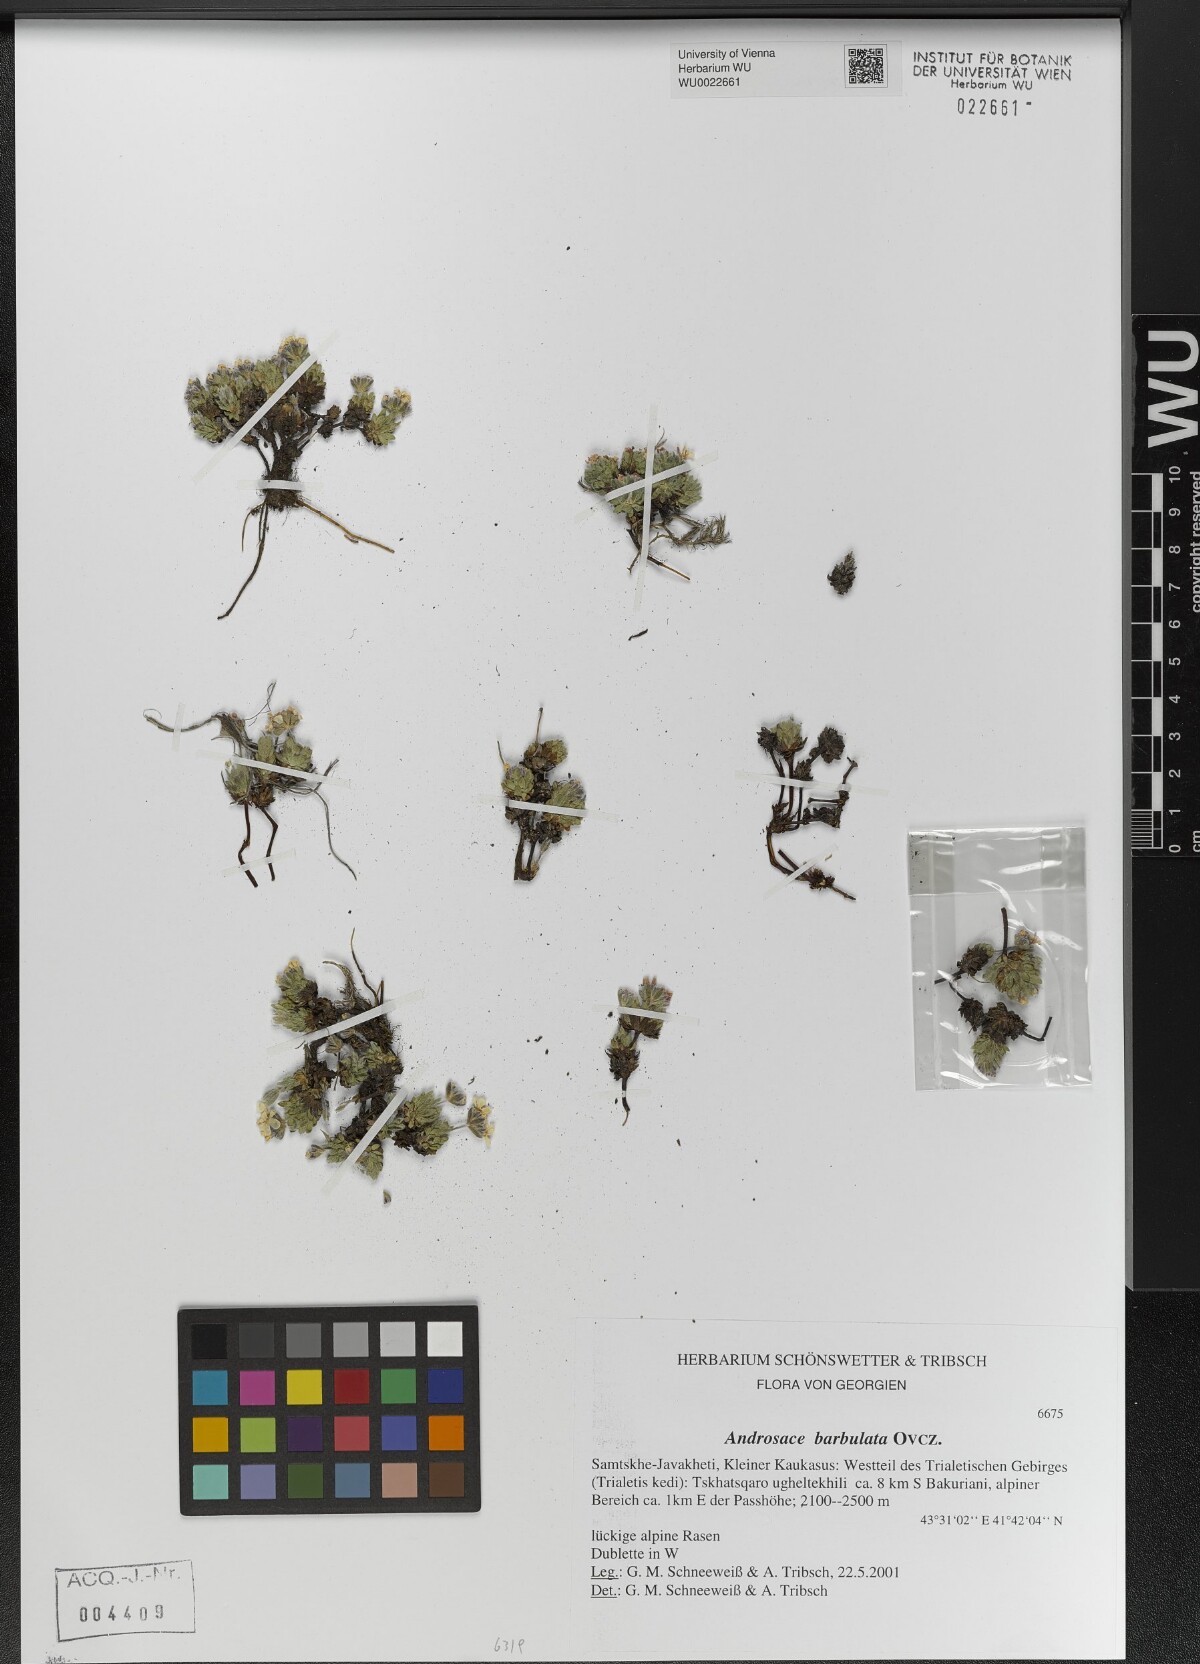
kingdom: Plantae
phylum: Tracheophyta
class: Magnoliopsida
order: Ericales
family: Primulaceae
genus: Androsace
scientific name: Androsace villosa
